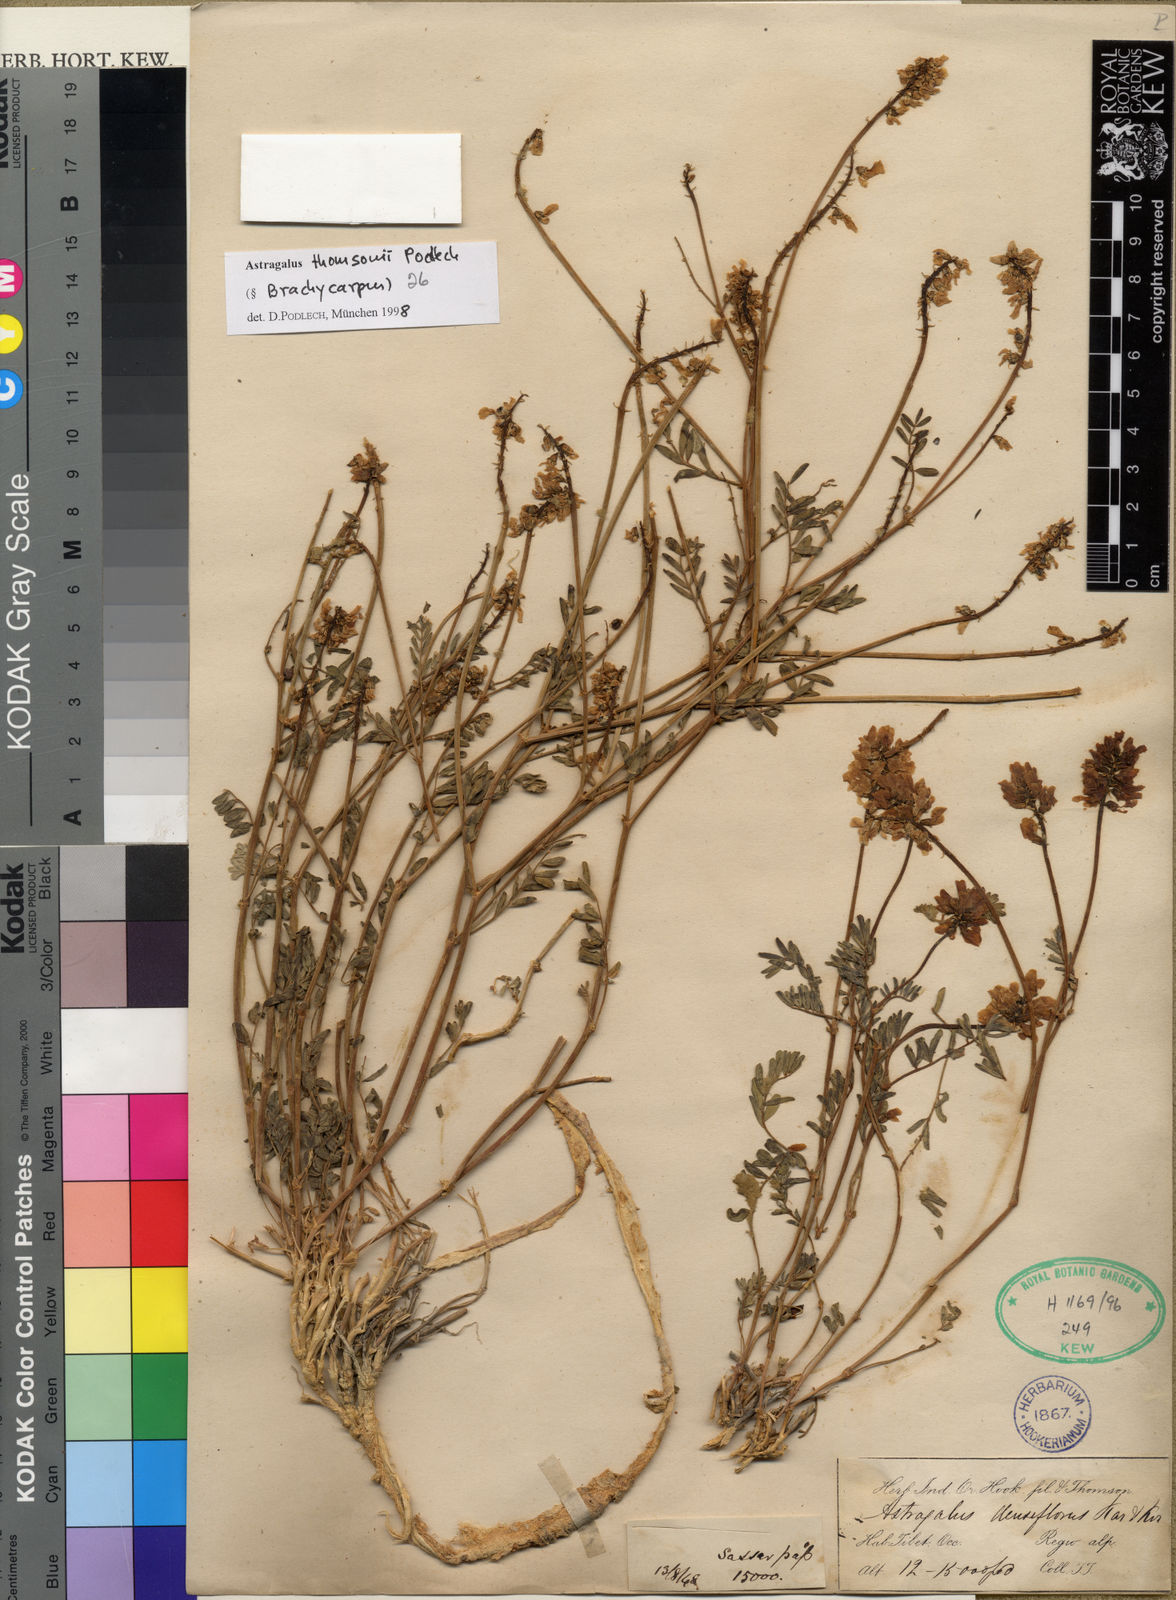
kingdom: Plantae
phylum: Tracheophyta
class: Magnoliopsida
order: Fabales
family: Fabaceae
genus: Astragalus
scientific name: Astragalus thomsonii
